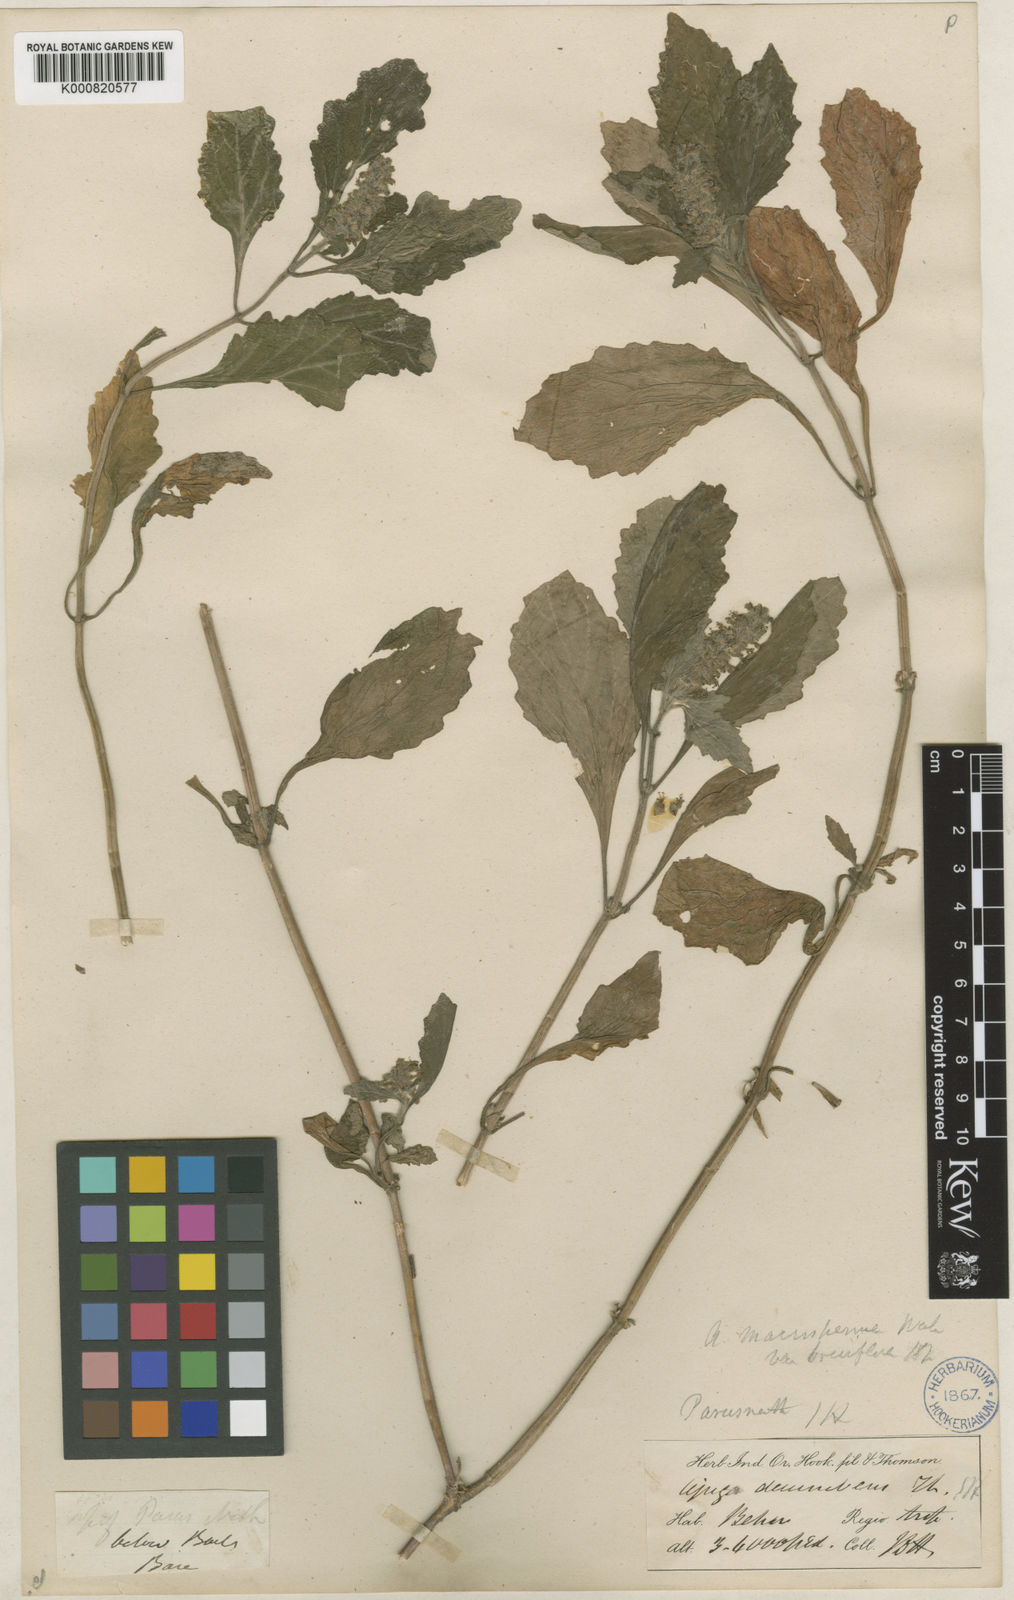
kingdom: Plantae
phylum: Tracheophyta
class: Magnoliopsida
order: Lamiales
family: Lamiaceae
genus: Ajuga
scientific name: Ajuga macrosperma
